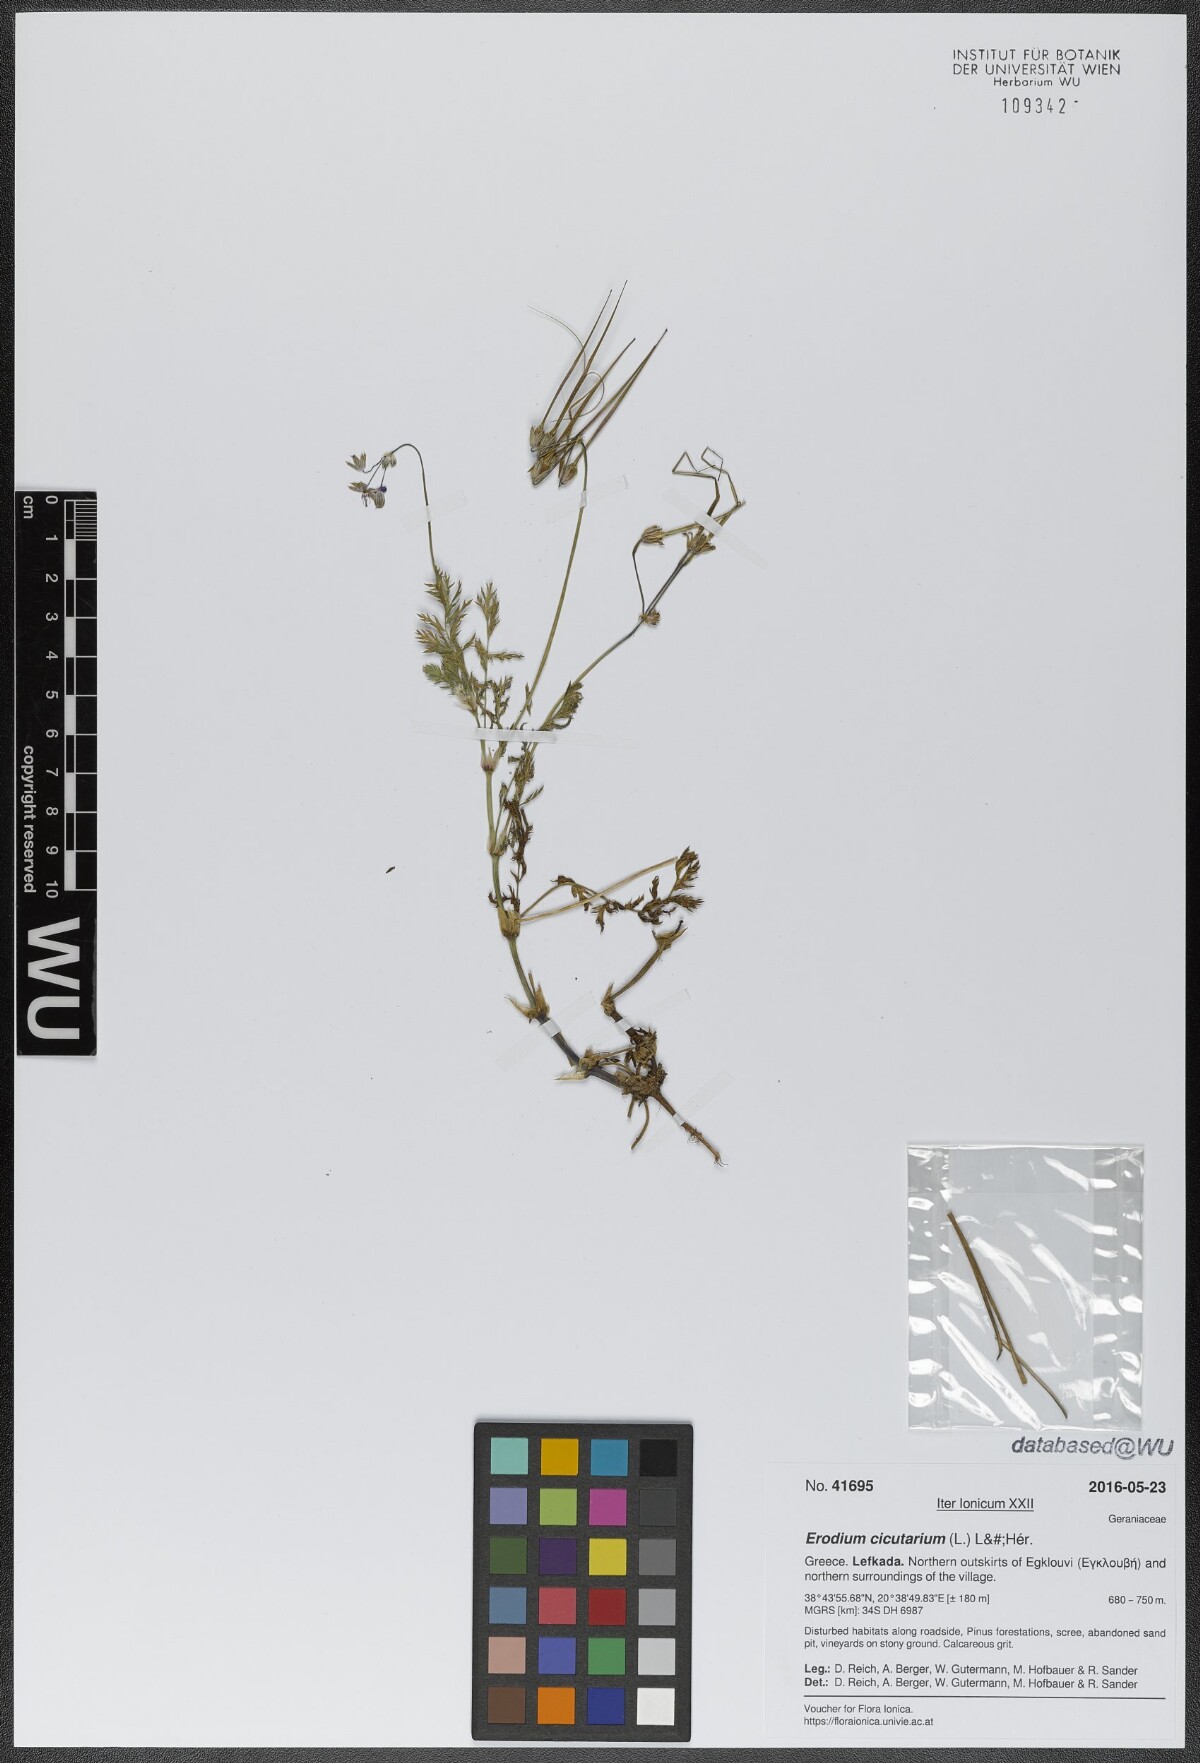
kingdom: Plantae
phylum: Tracheophyta
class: Magnoliopsida
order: Geraniales
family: Geraniaceae
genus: Erodium
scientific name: Erodium cicutarium
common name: Common stork's-bill
